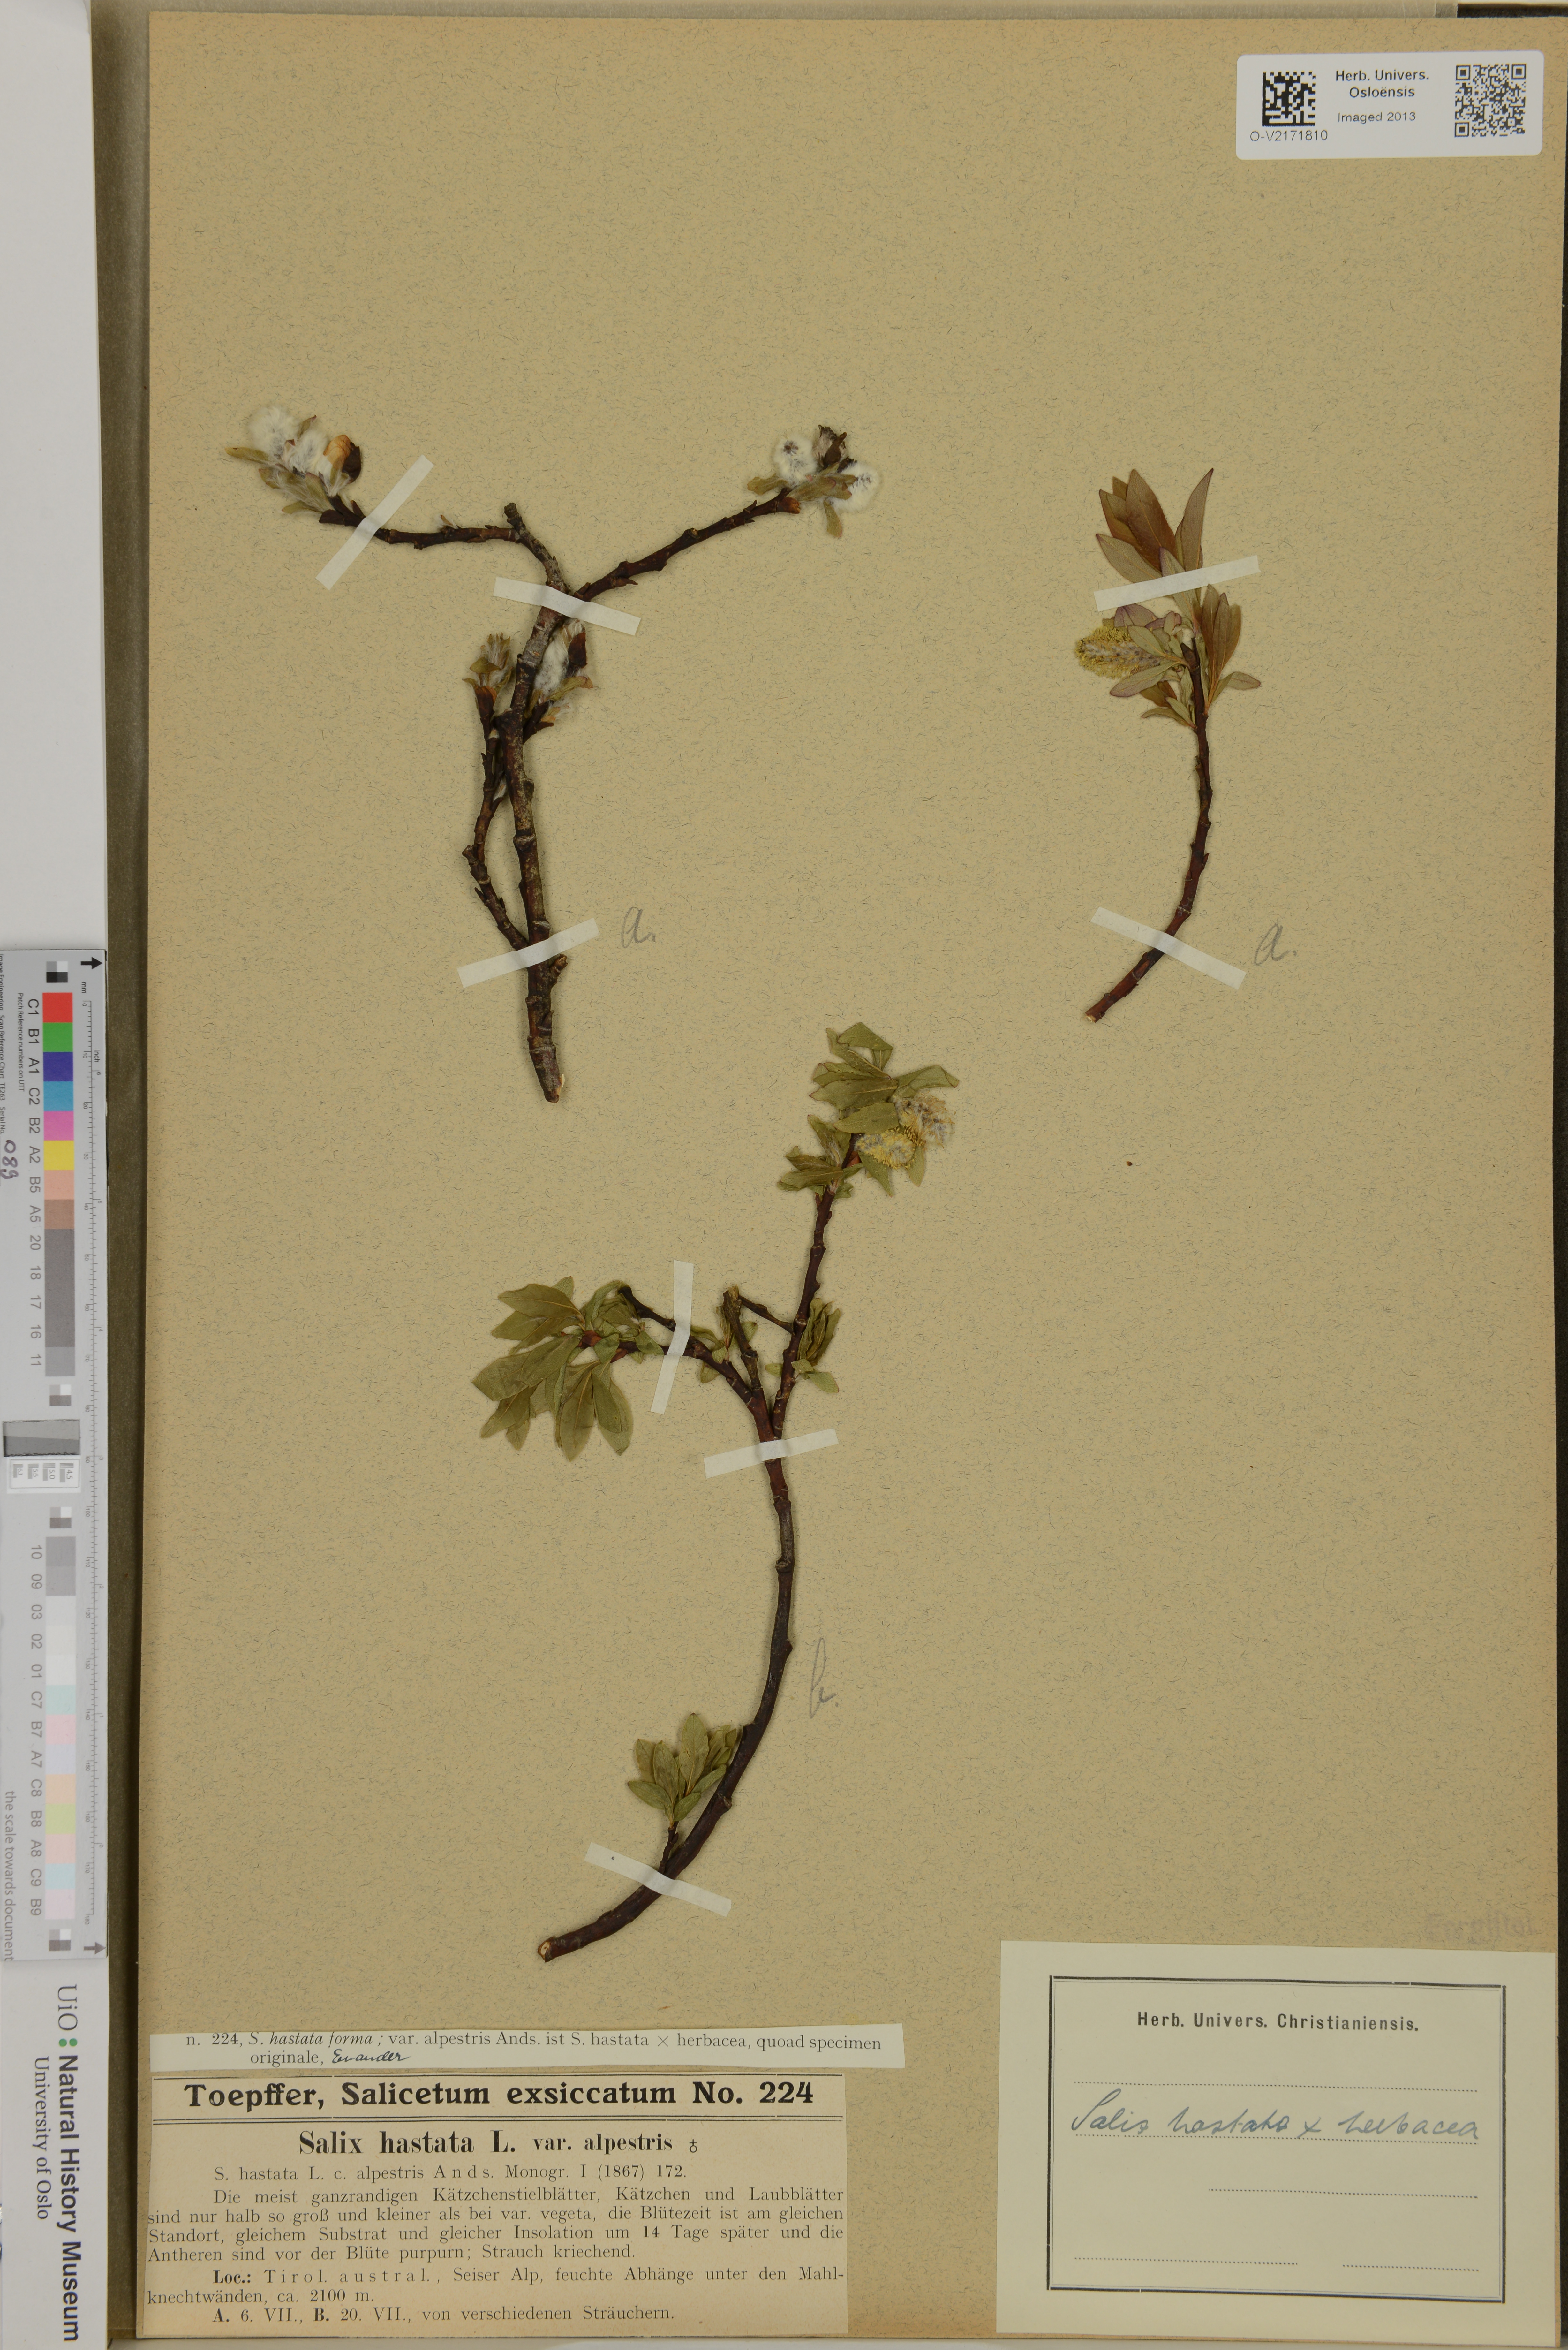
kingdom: Plantae
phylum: Tracheophyta
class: Magnoliopsida
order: Malpighiales
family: Salicaceae
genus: Salix
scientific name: Salix hastata
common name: Halberd willow
